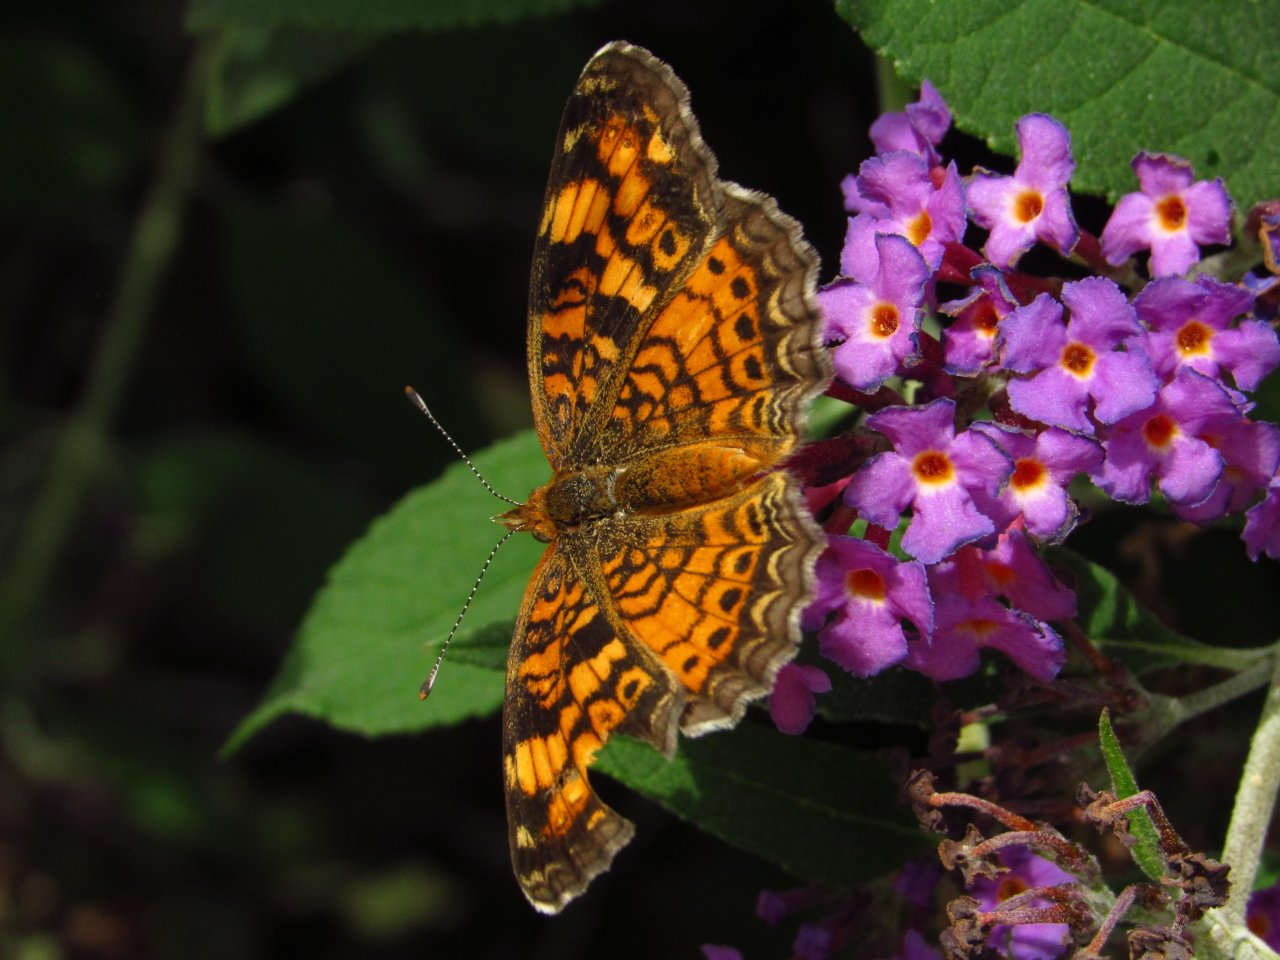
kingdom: Animalia
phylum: Arthropoda
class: Insecta
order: Lepidoptera
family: Nymphalidae
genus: Phyciodes
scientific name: Phyciodes tharos
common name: Pearl Crescent
